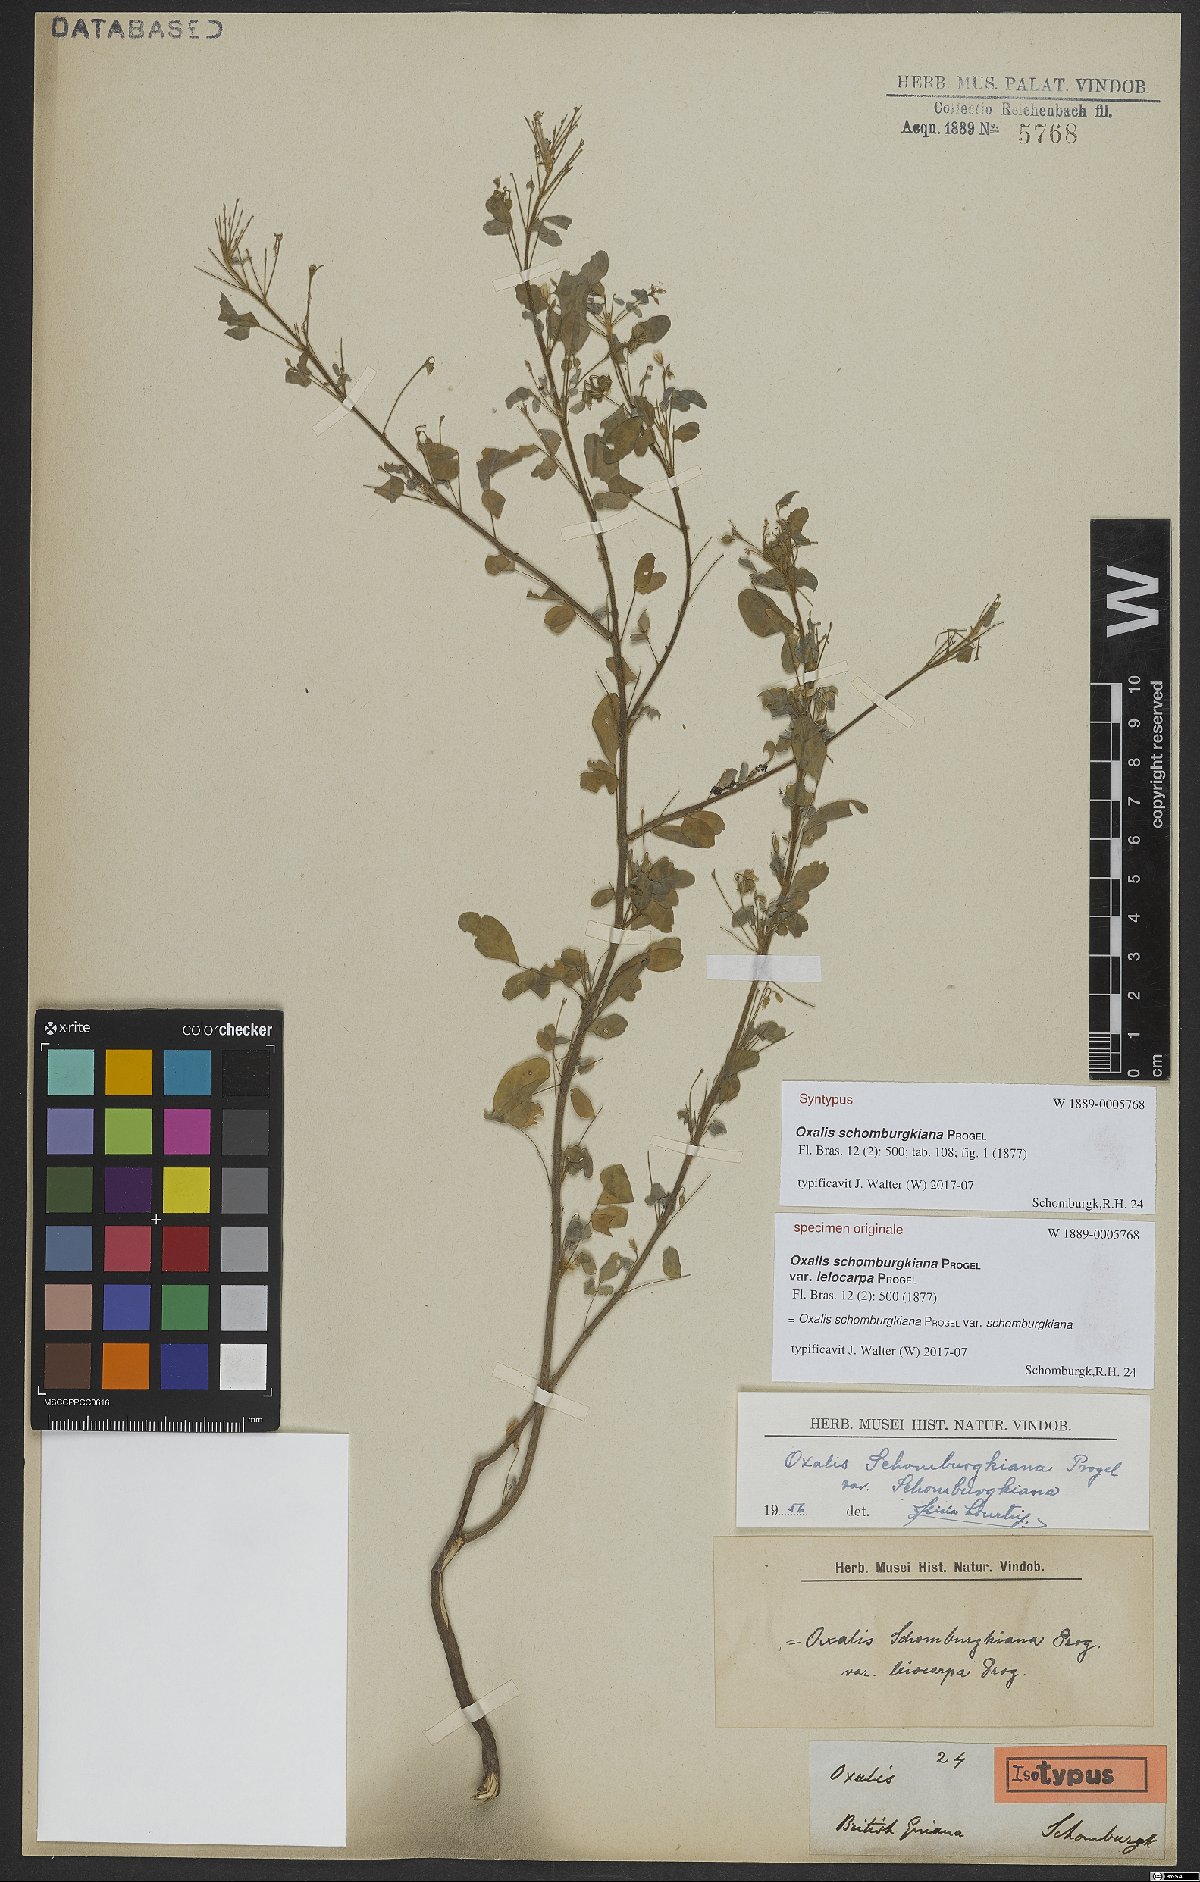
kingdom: Plantae
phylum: Tracheophyta
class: Magnoliopsida
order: Oxalidales
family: Oxalidaceae
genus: Oxalis
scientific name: Oxalis frutescens
